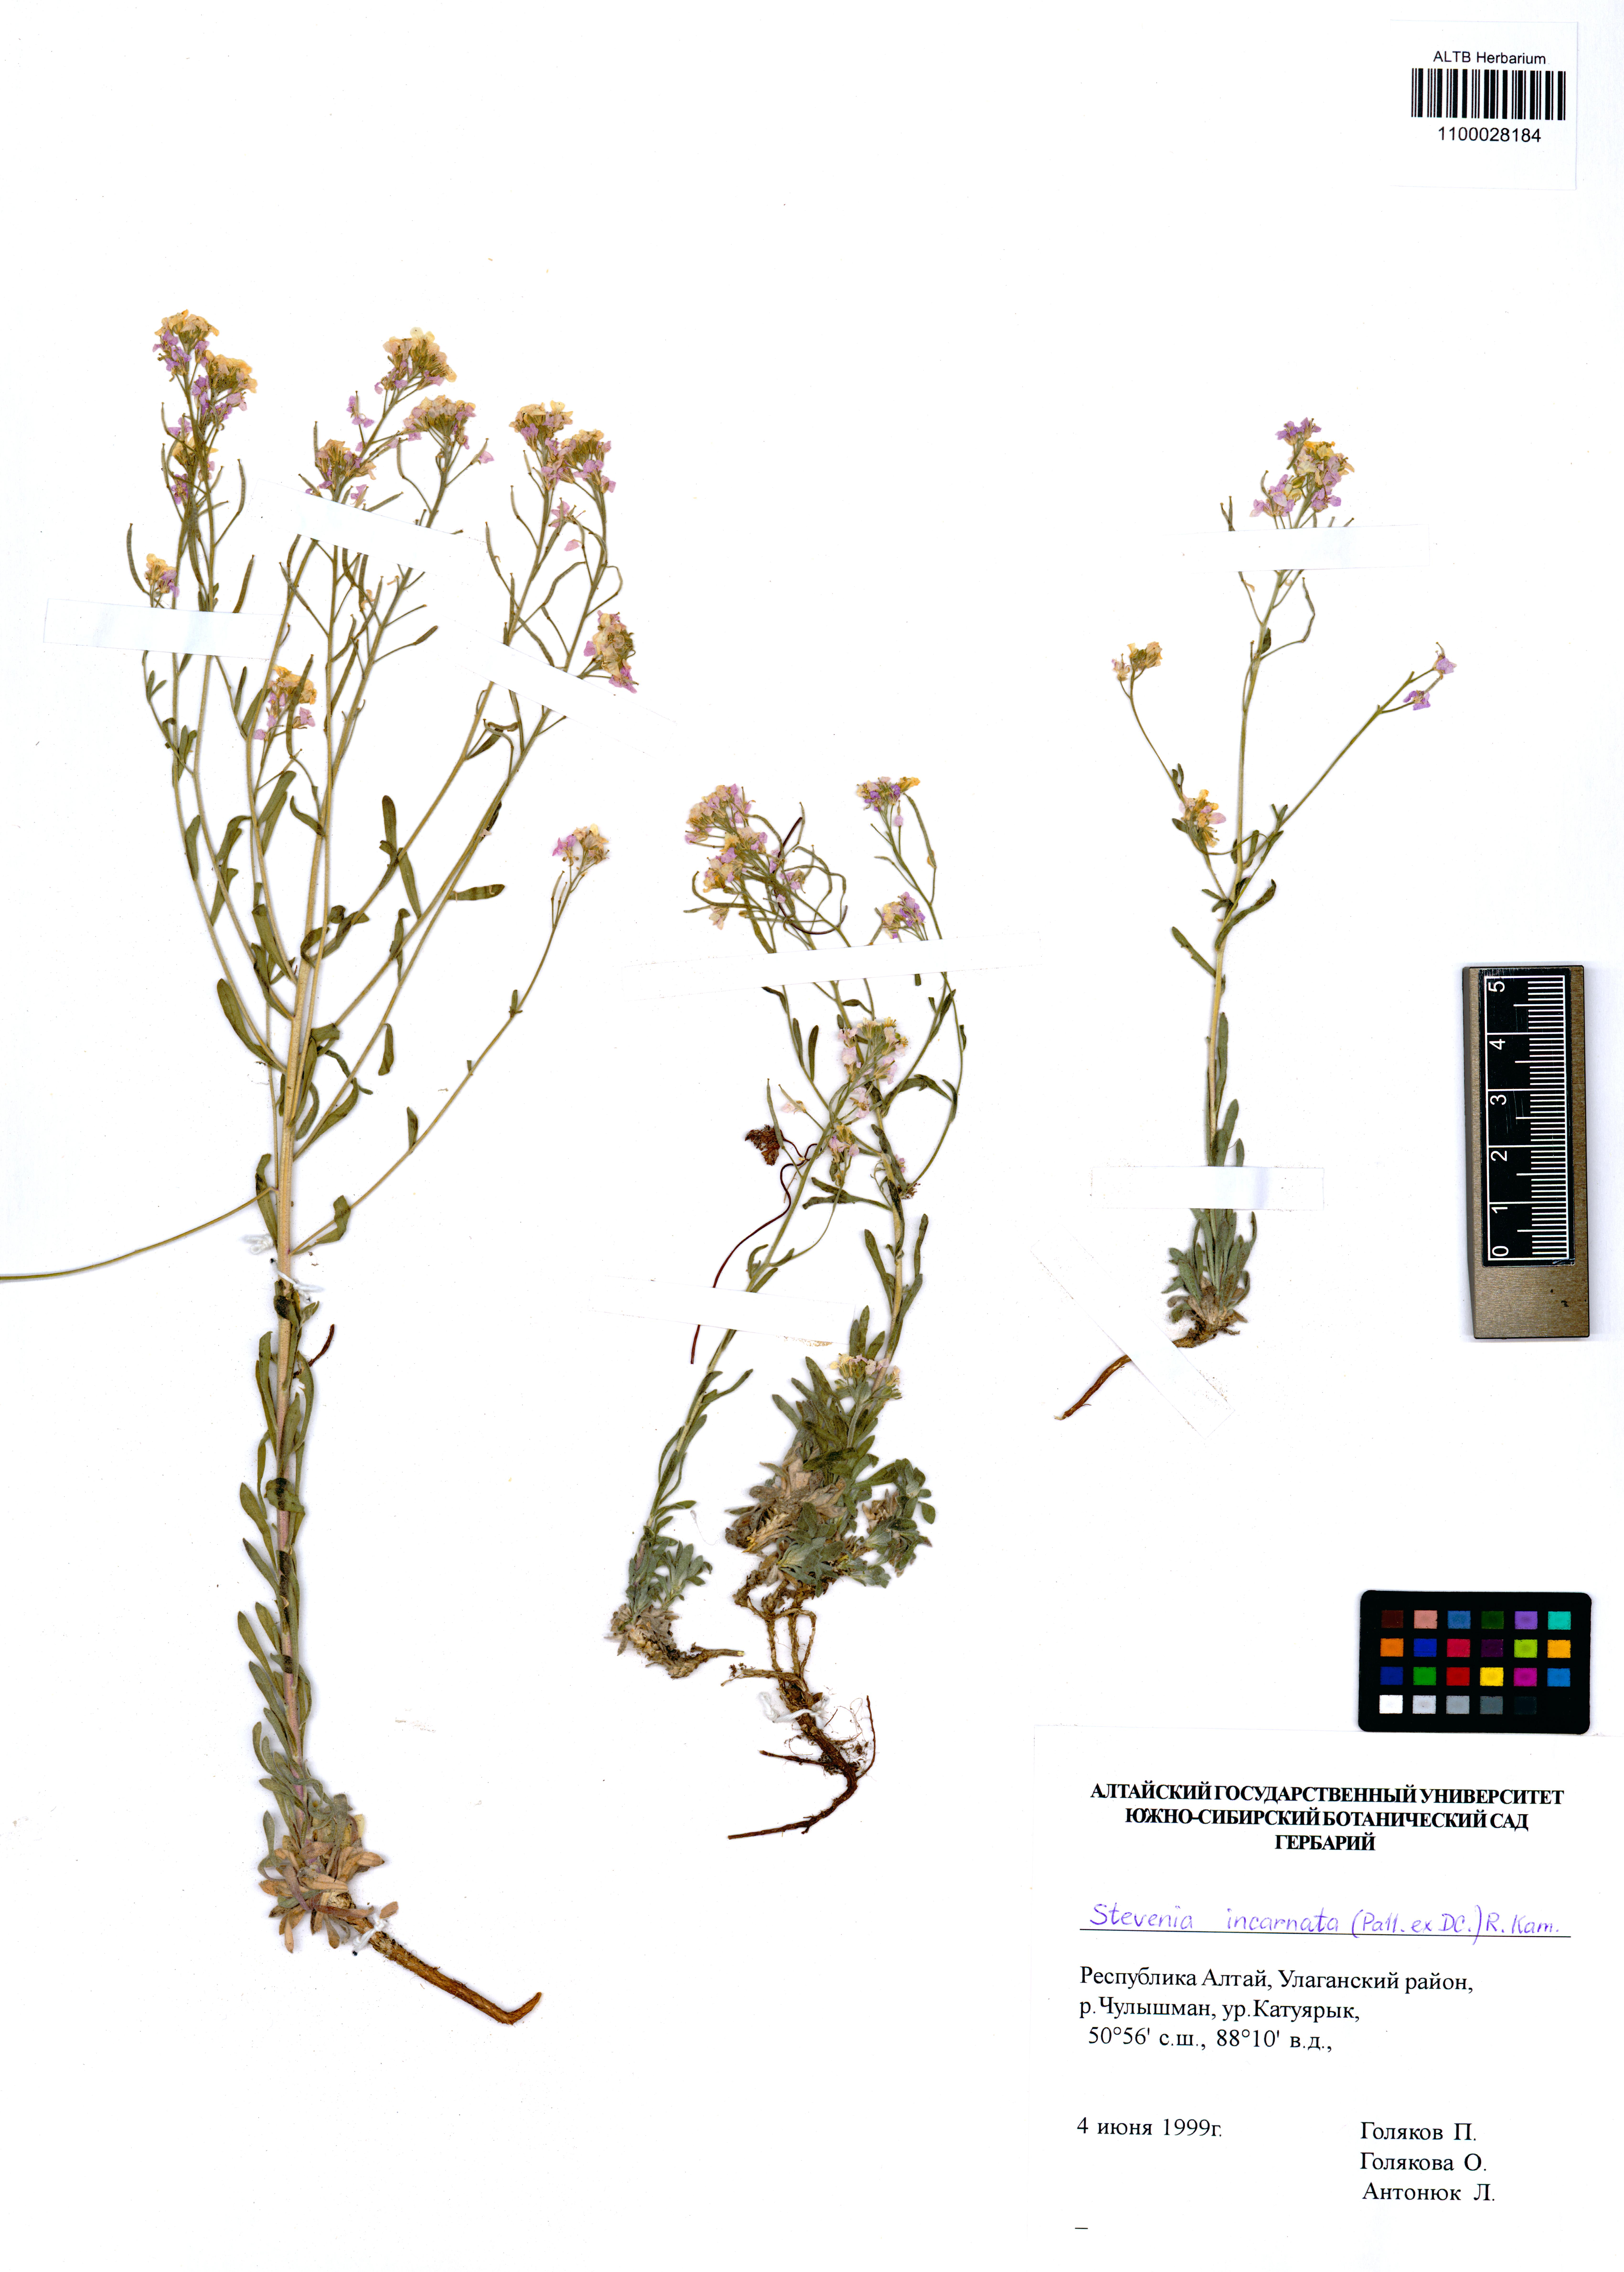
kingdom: Plantae
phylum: Tracheophyta
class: Magnoliopsida
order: Brassicales
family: Brassicaceae
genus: Stevenia
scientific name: Stevenia incarnata
